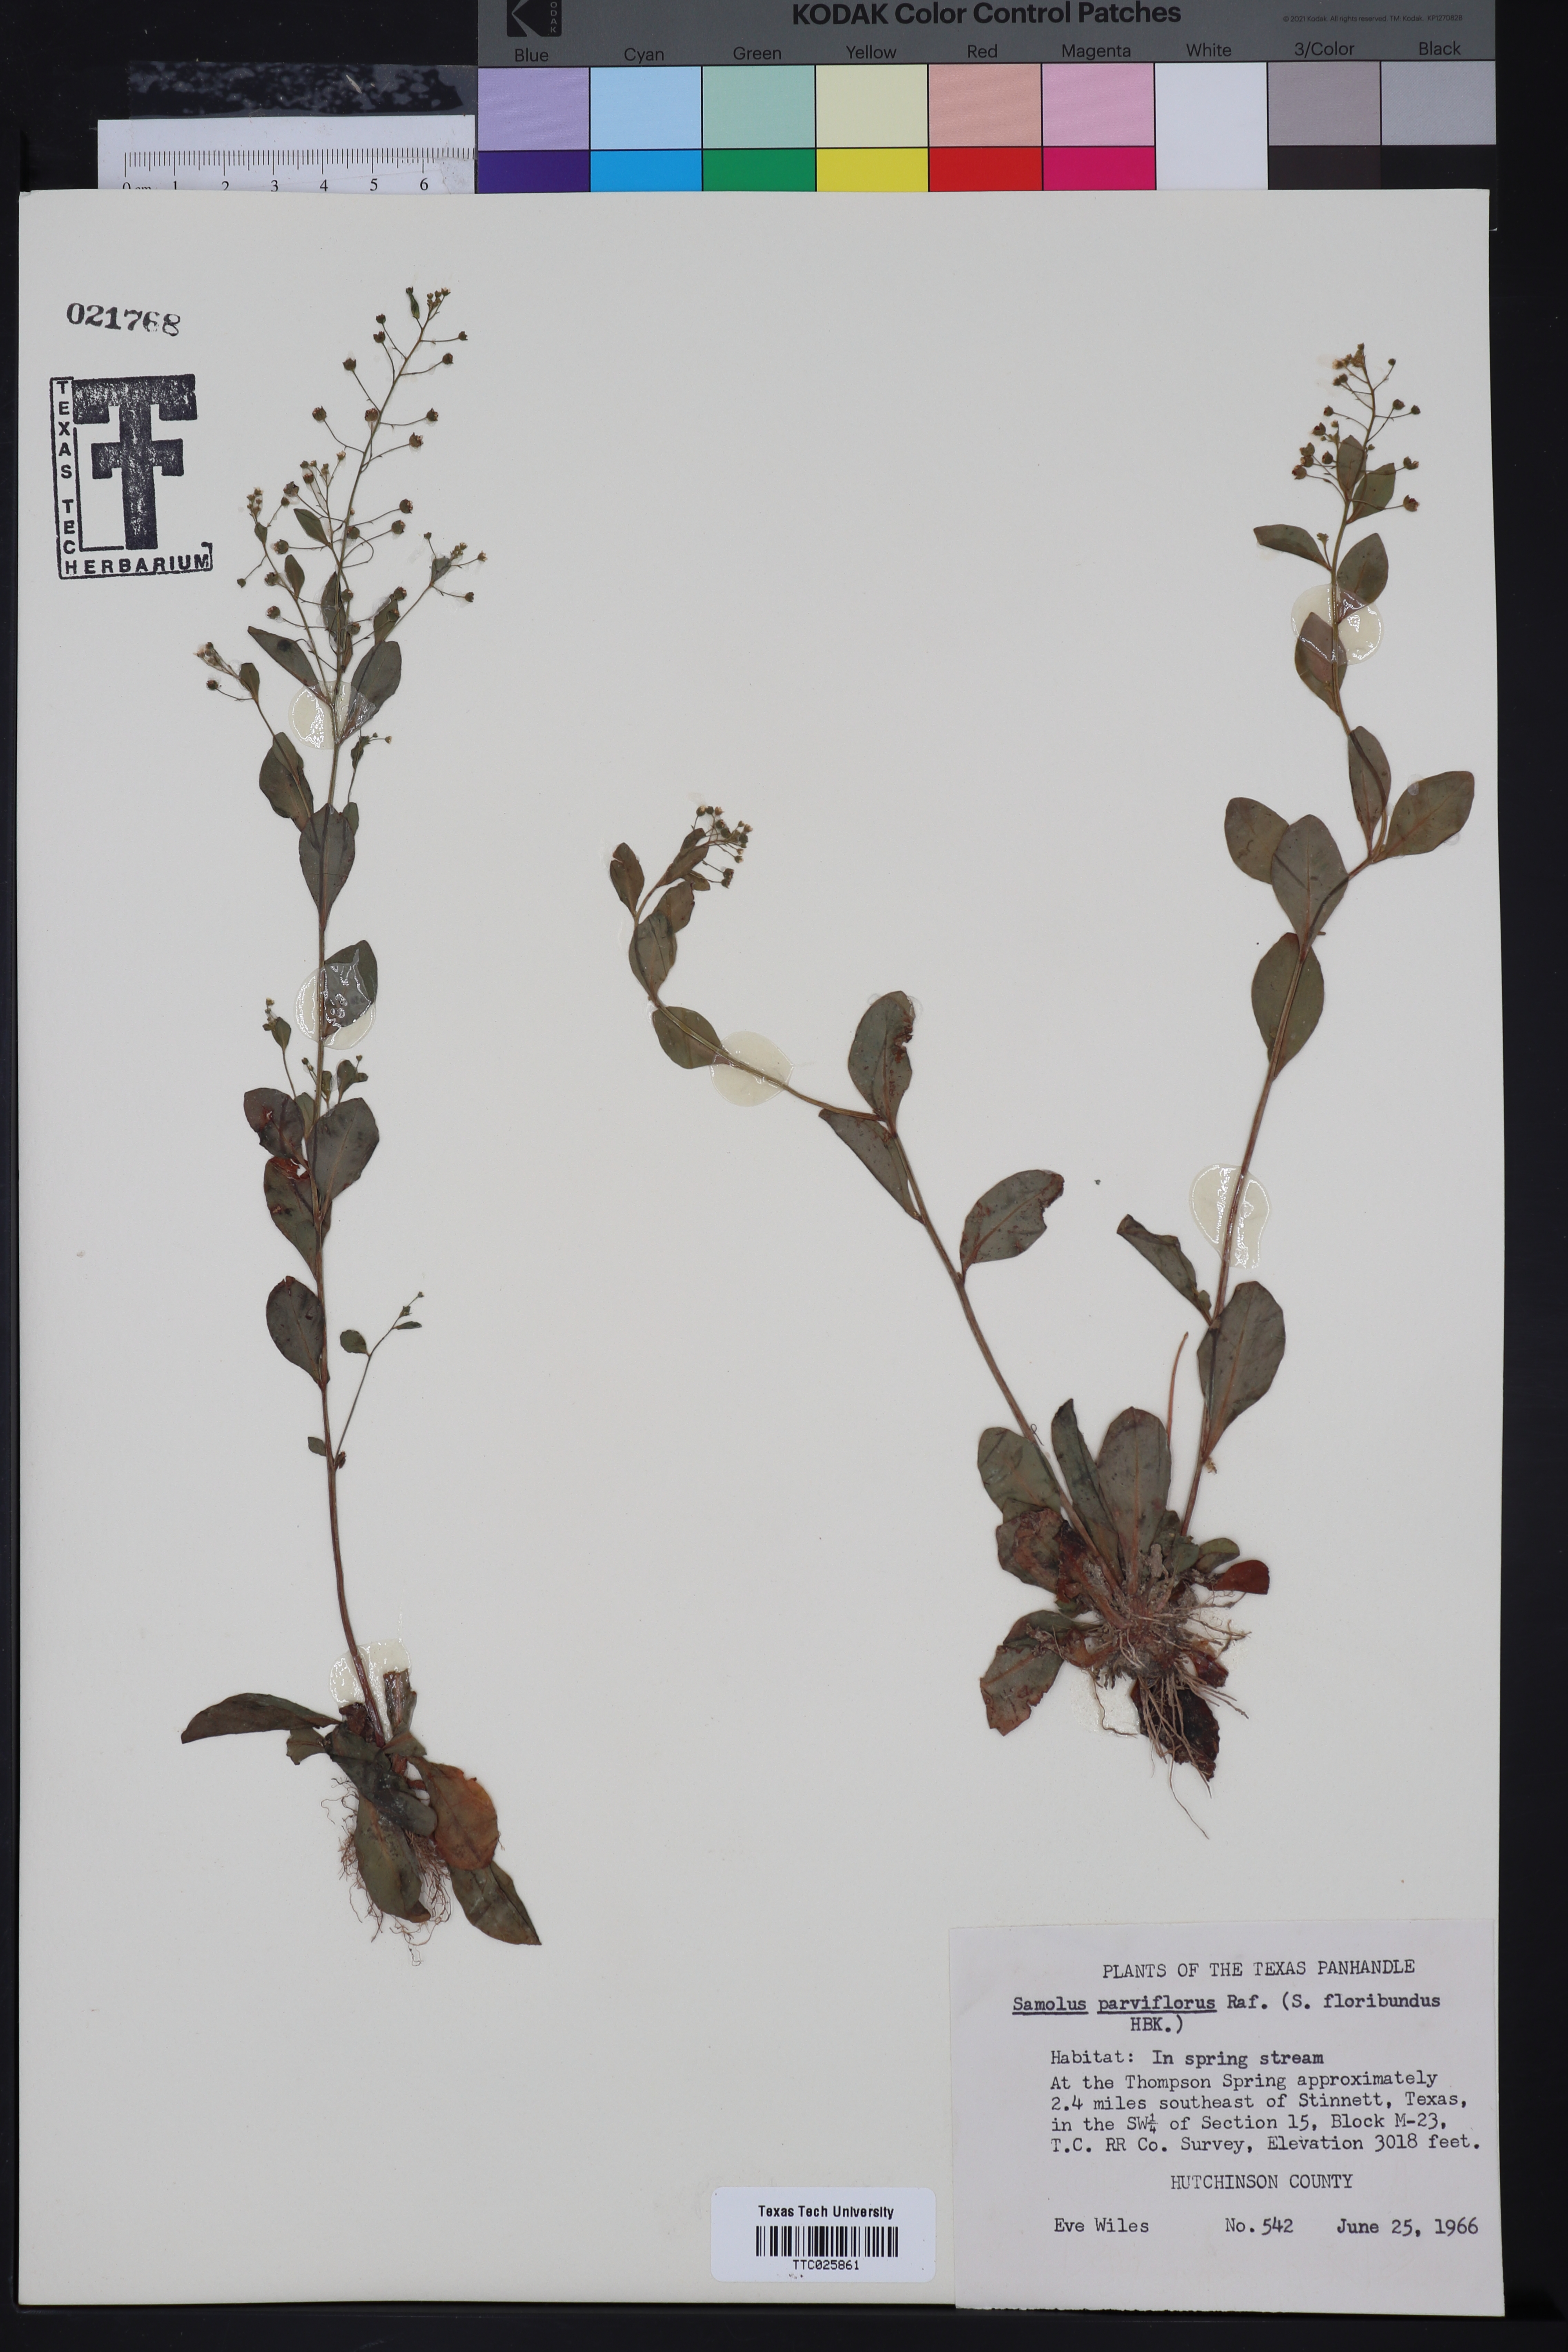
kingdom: Plantae
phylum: Tracheophyta
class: Magnoliopsida
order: Ericales
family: Primulaceae
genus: Samolus
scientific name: Samolus parviflorus
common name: False water pimpernel
